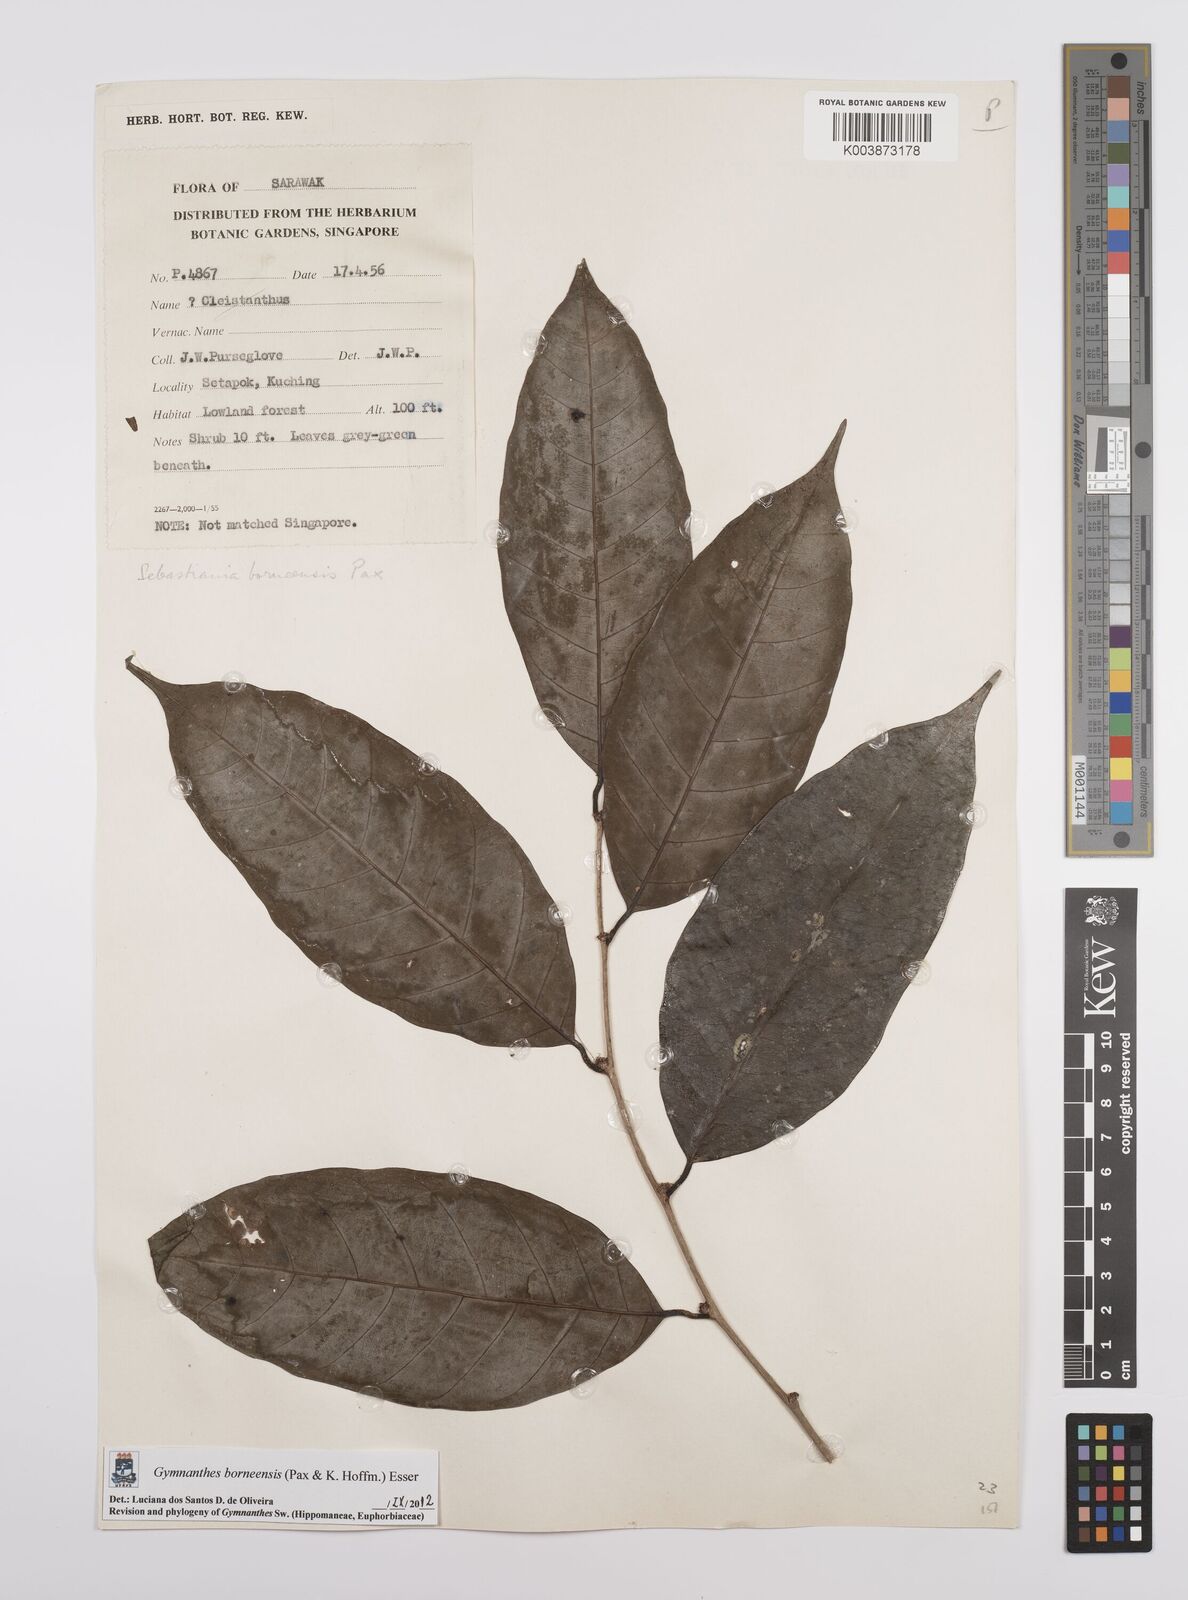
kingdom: Plantae
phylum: Tracheophyta
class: Magnoliopsida
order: Malpighiales
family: Euphorbiaceae
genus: Gymnanthes
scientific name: Gymnanthes borneensis
